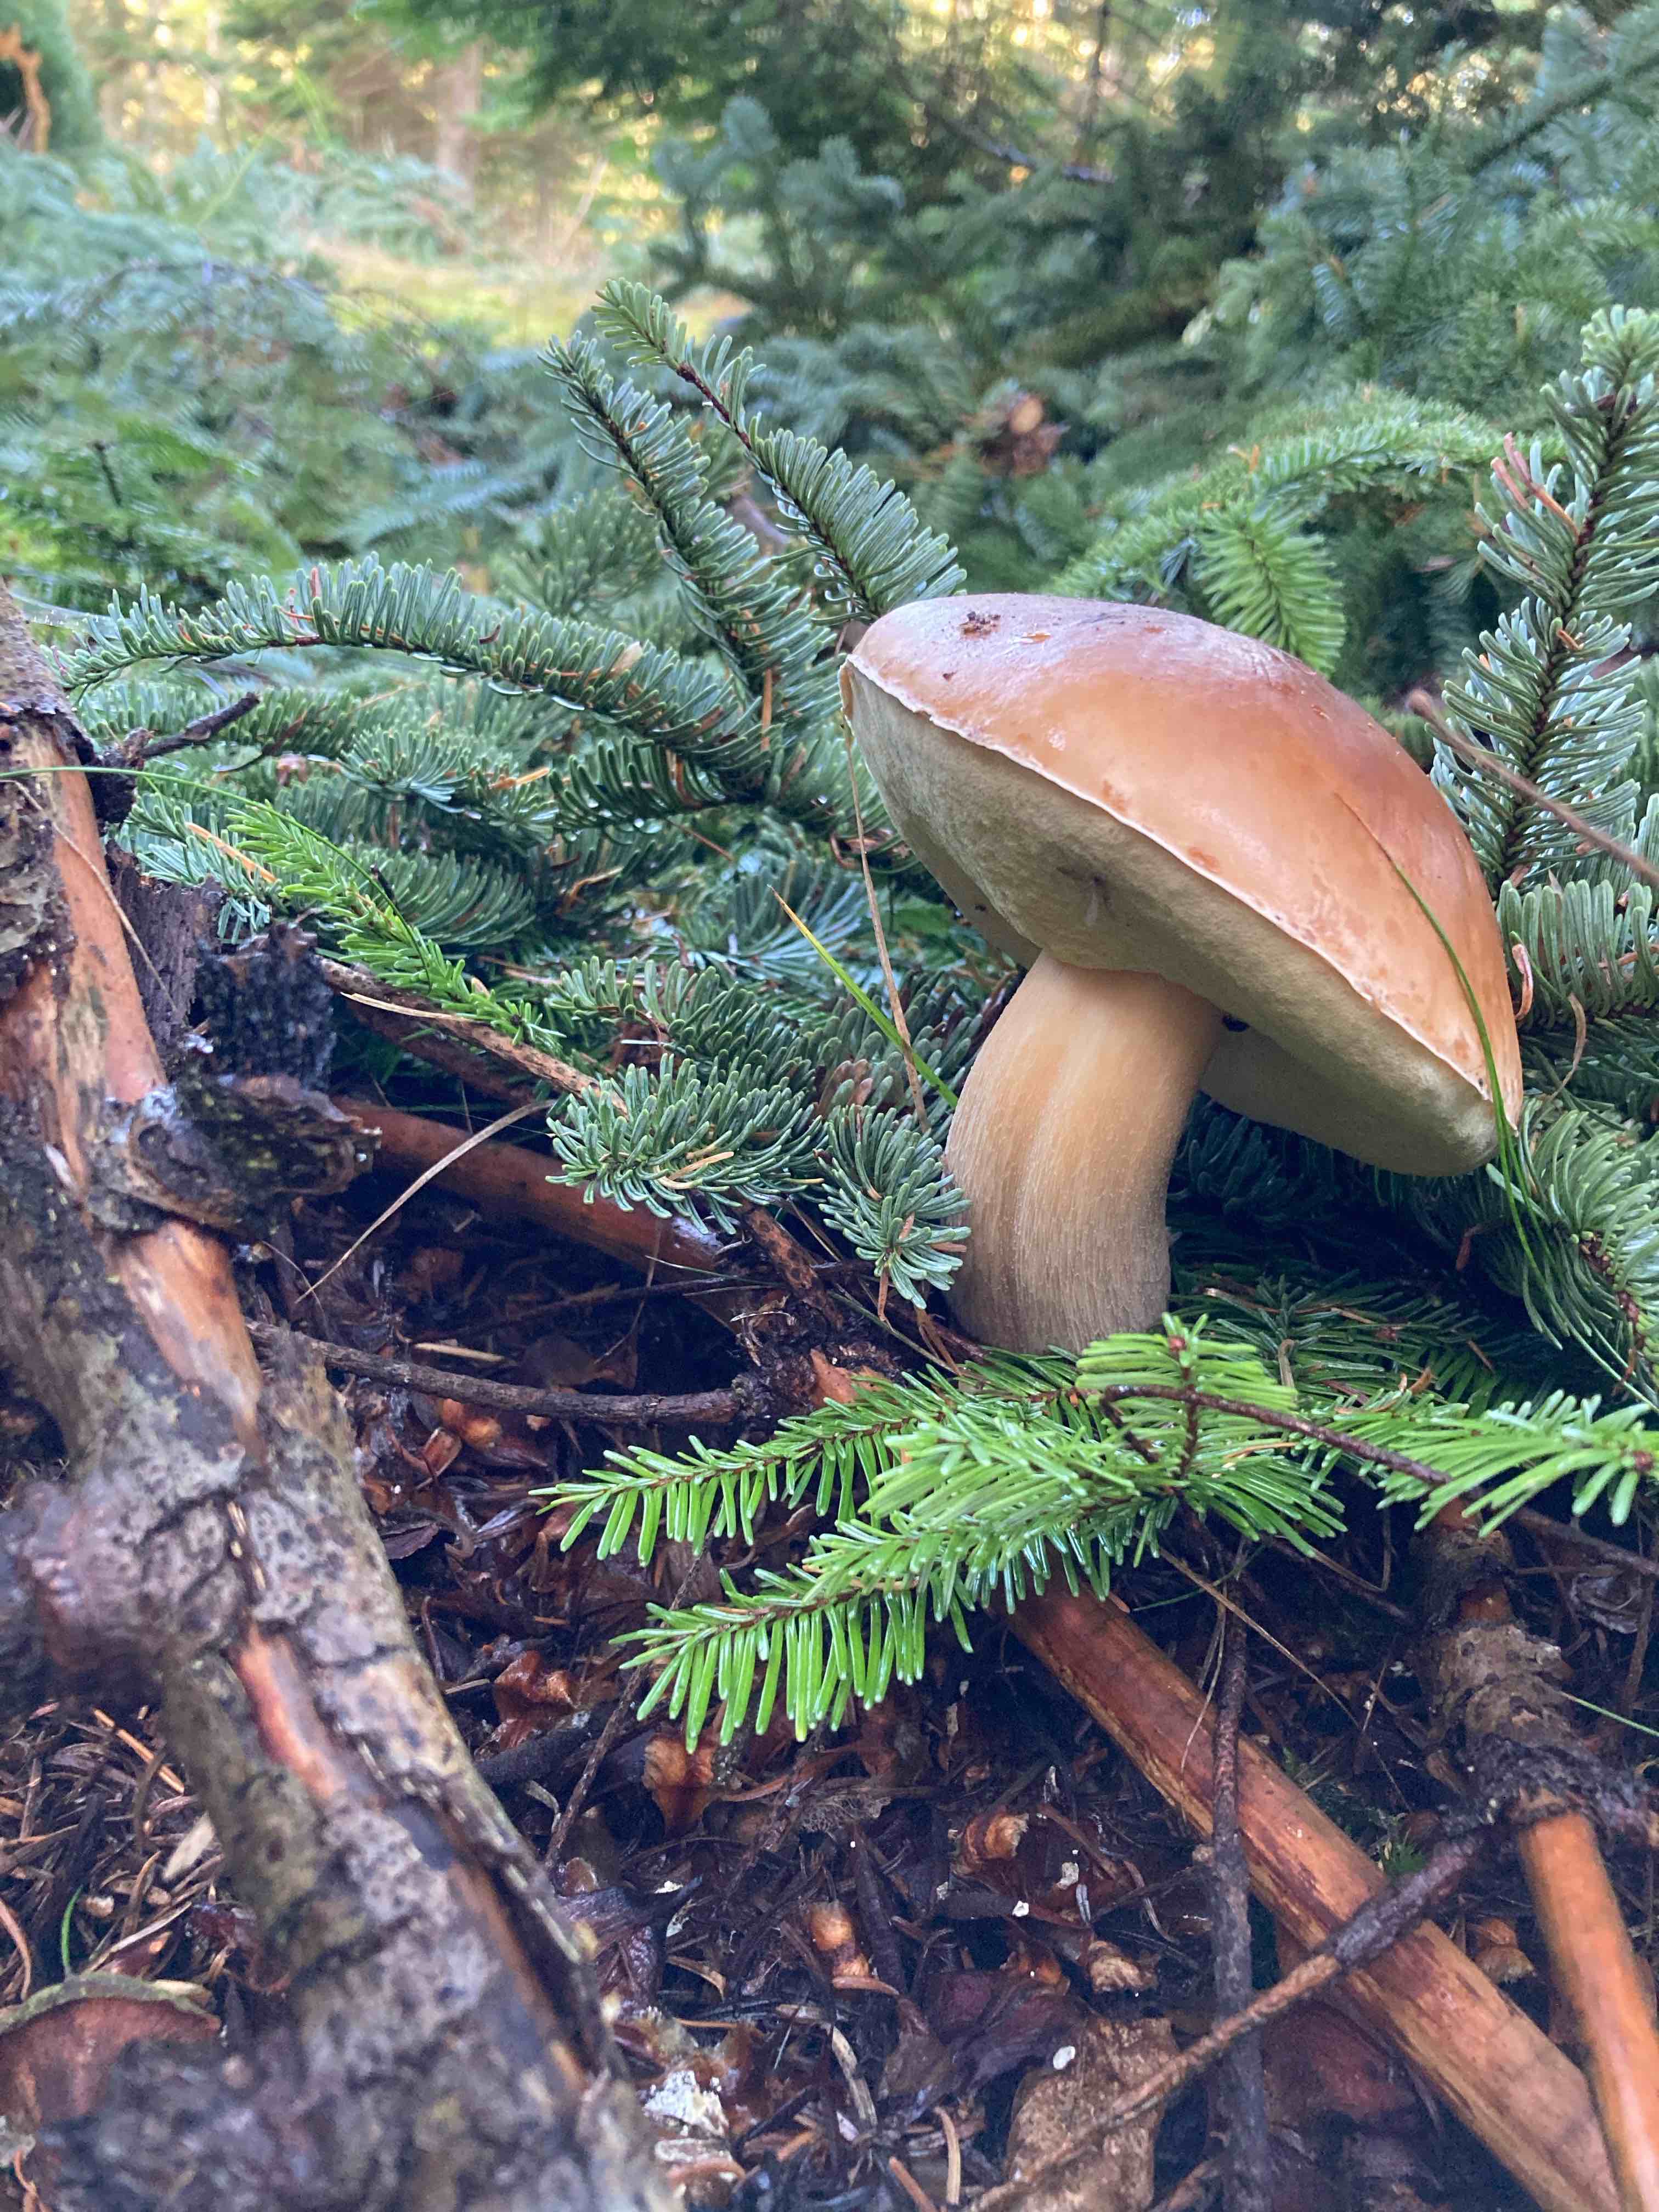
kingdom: Fungi
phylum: Basidiomycota
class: Agaricomycetes
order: Boletales
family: Boletaceae
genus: Boletus
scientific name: Boletus edulis
